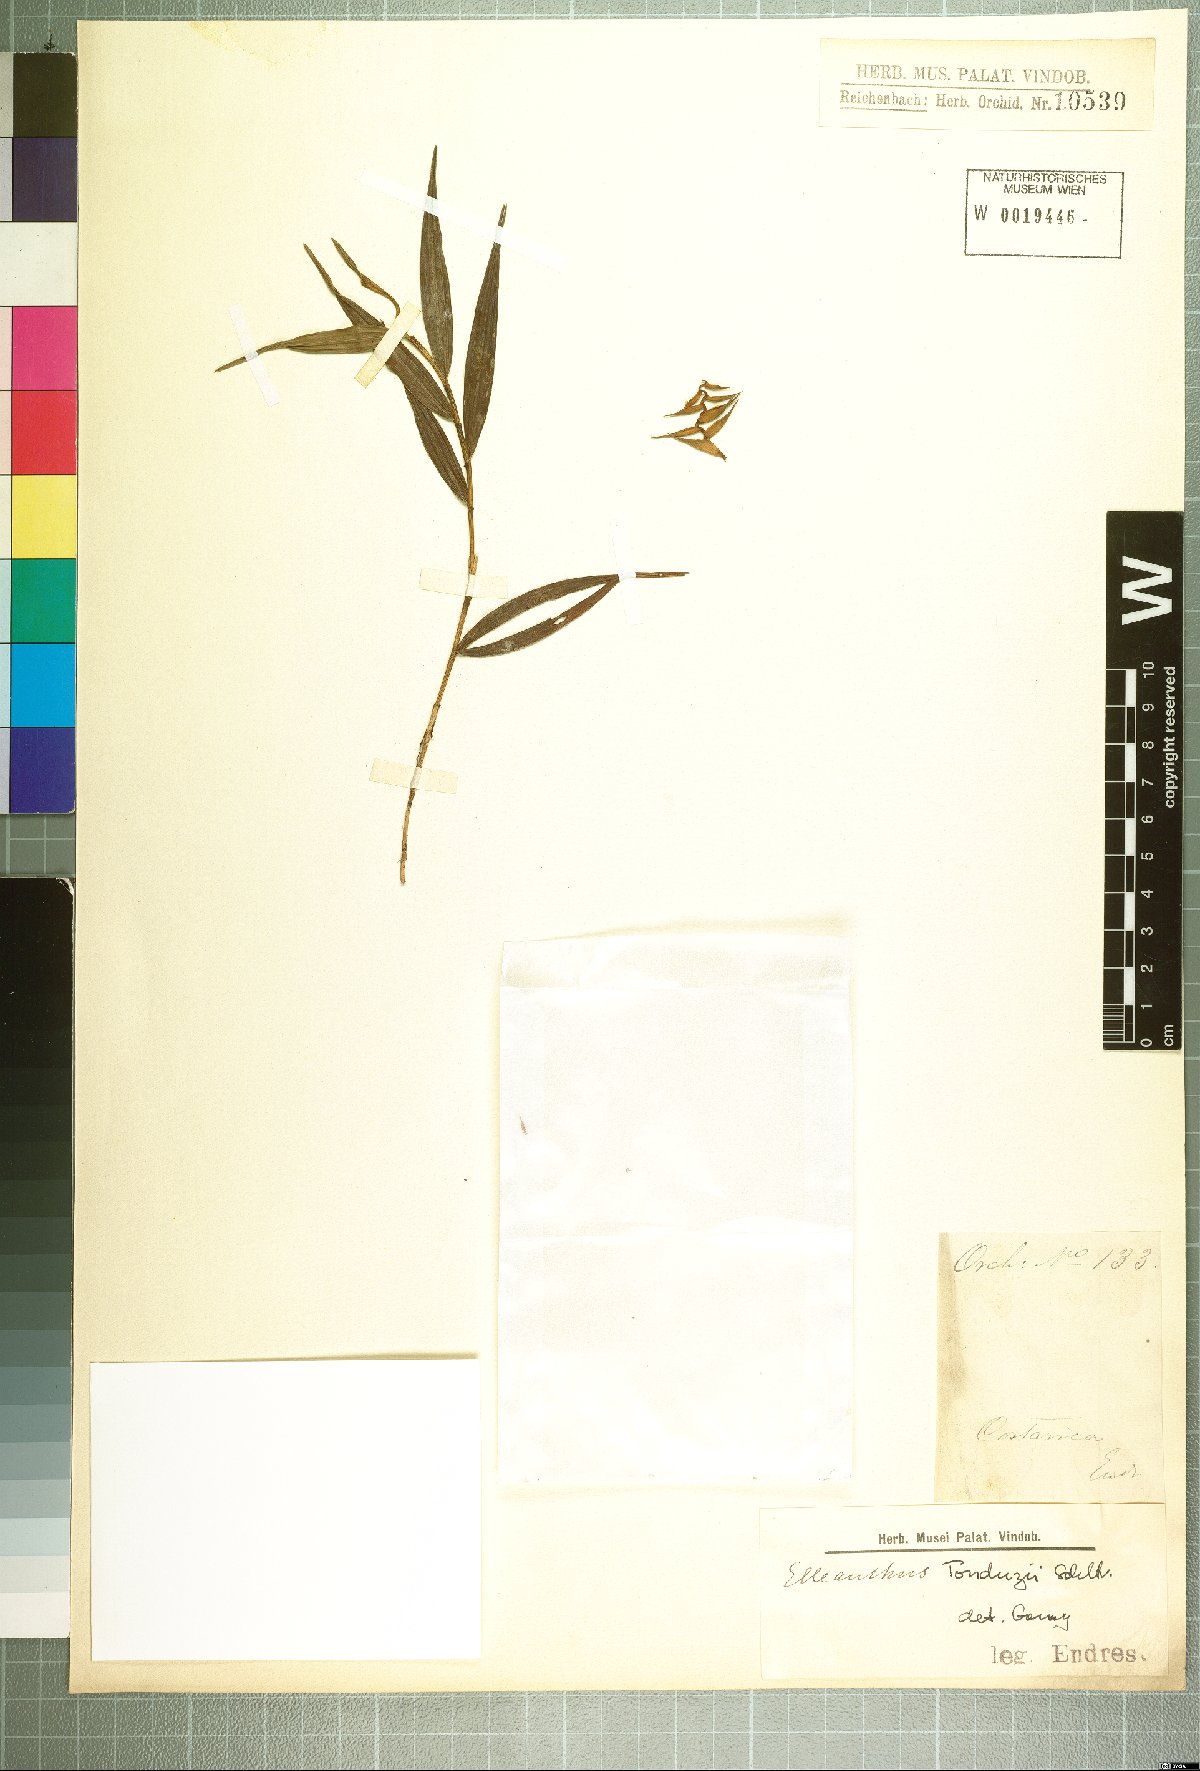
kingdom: Plantae
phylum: Tracheophyta
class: Liliopsida
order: Asparagales
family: Orchidaceae
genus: Elleanthus
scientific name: Elleanthus tonduzii
